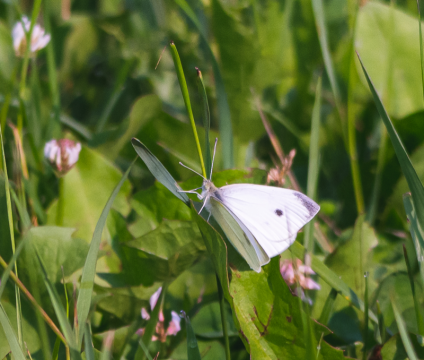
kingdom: Animalia
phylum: Arthropoda
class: Insecta
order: Lepidoptera
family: Pieridae
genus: Pieris
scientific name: Pieris rapae
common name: Cabbage White
